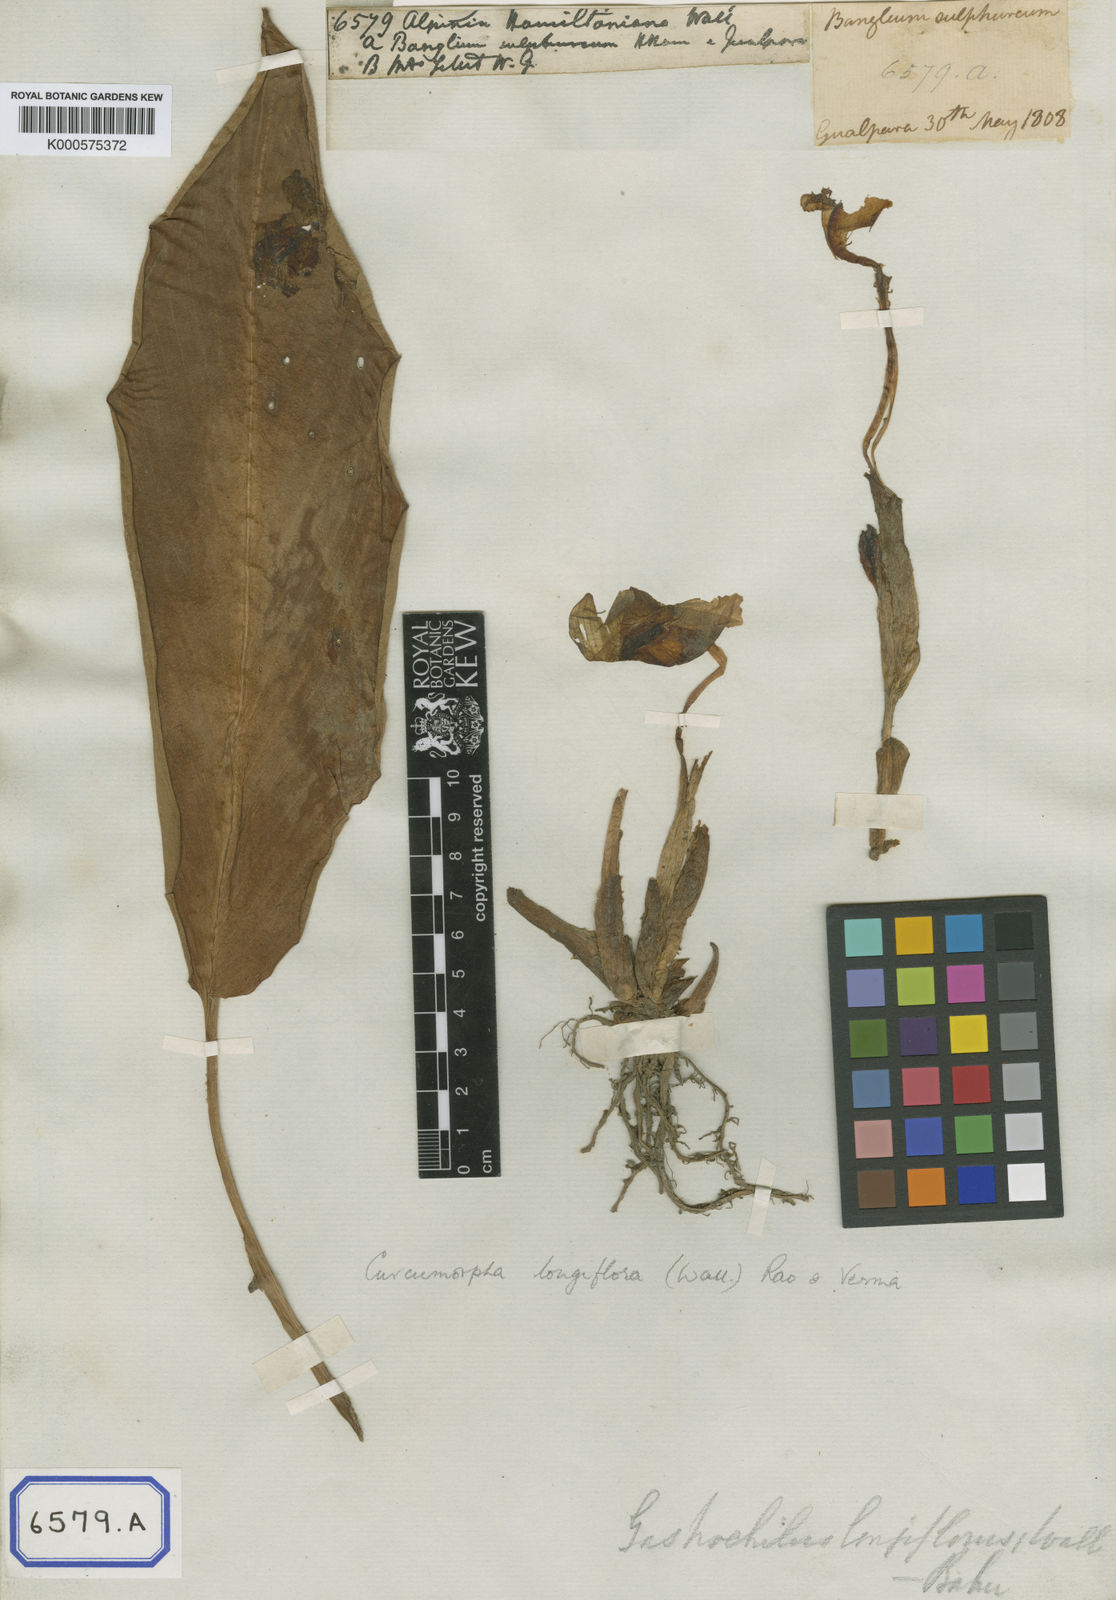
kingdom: Plantae
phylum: Tracheophyta
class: Liliopsida
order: Zingiberales
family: Zingiberaceae
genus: Boesenbergia
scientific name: Boesenbergia hamiltonii
